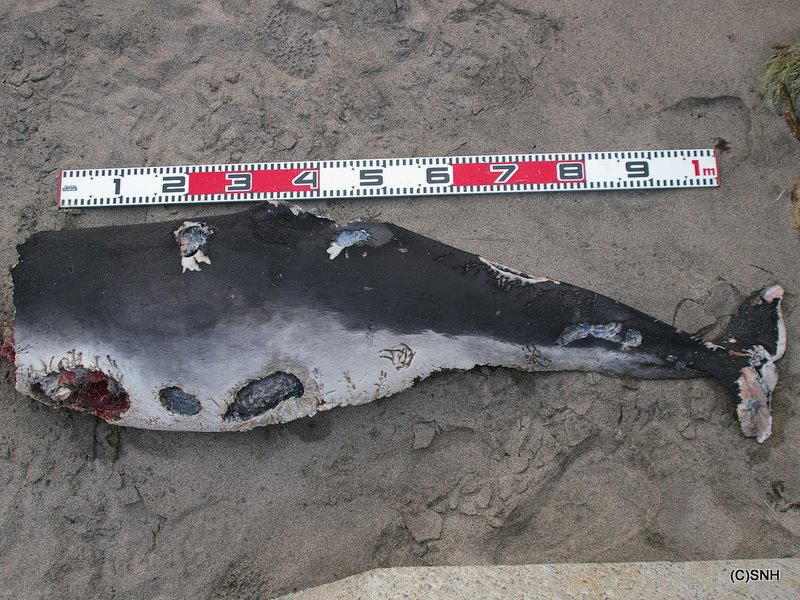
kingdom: Animalia
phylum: Chordata
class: Mammalia
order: Cetacea
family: Phocoenidae
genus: Phocoena
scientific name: Phocoena phocoena
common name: Harbour porpoise
